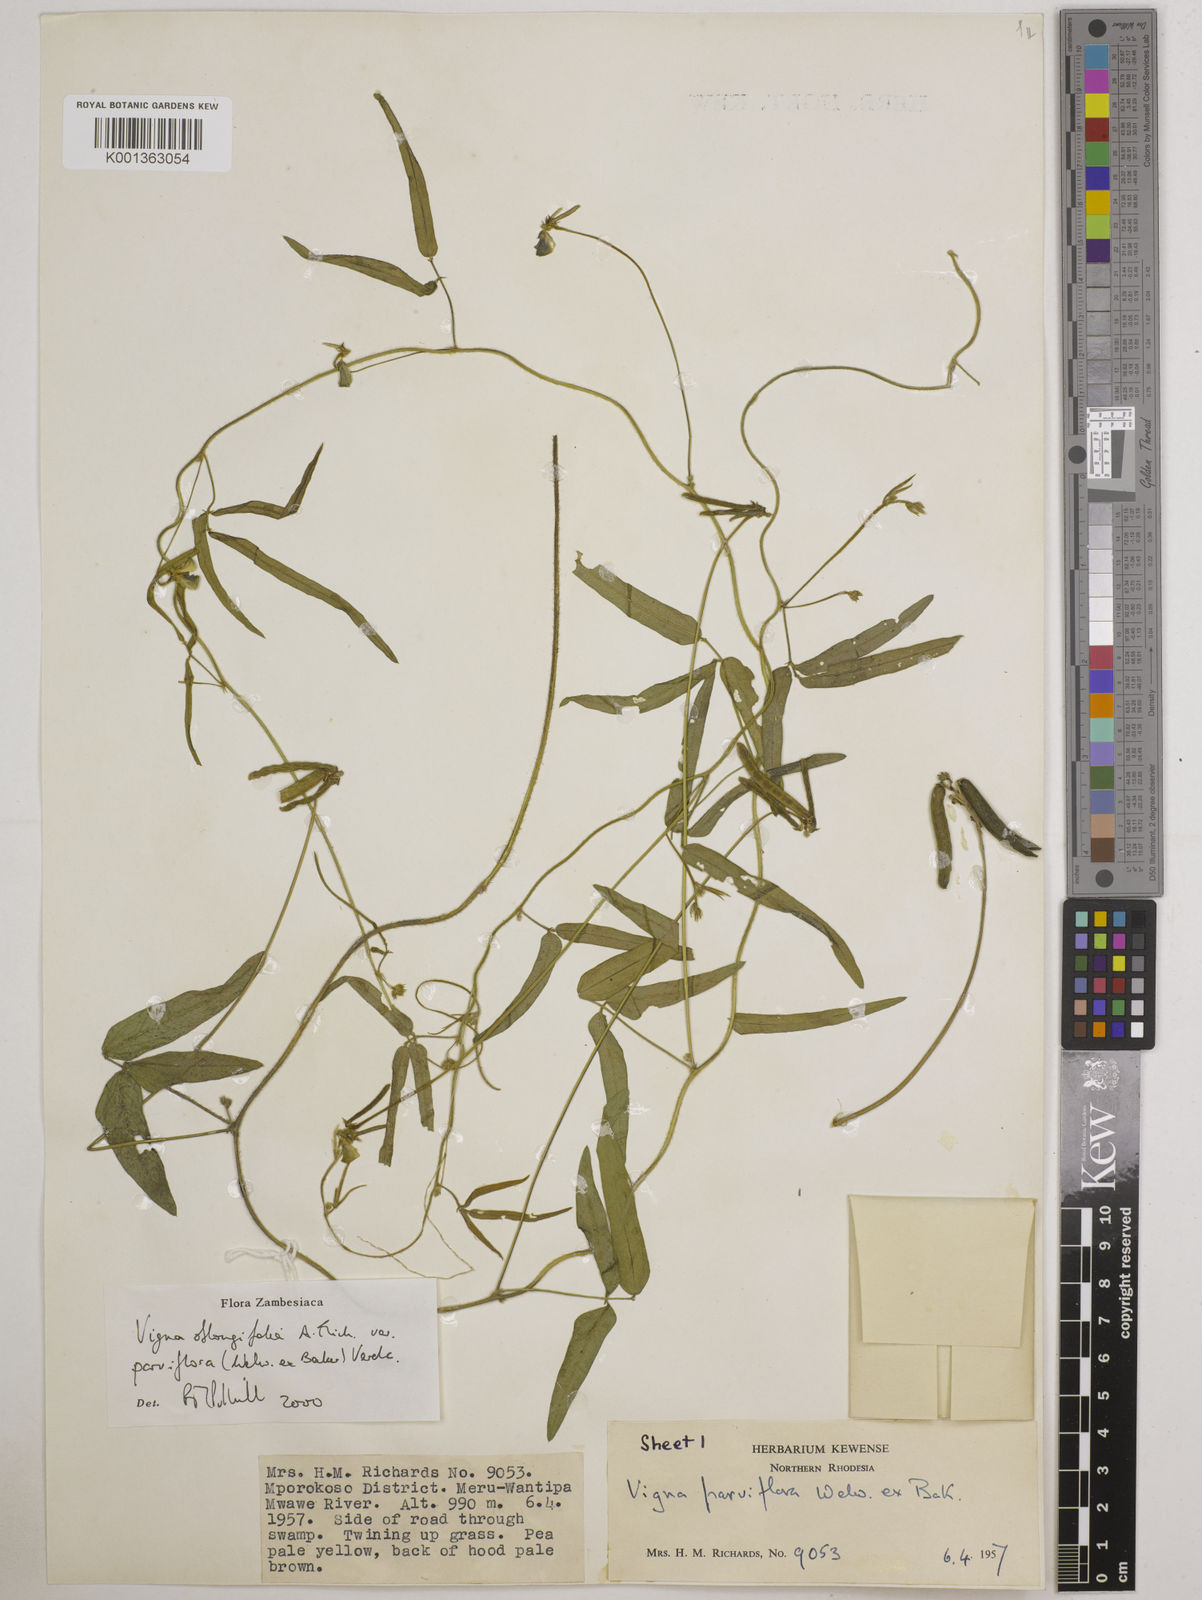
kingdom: Plantae
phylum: Tracheophyta
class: Magnoliopsida
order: Fabales
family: Fabaceae
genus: Vigna
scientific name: Vigna
